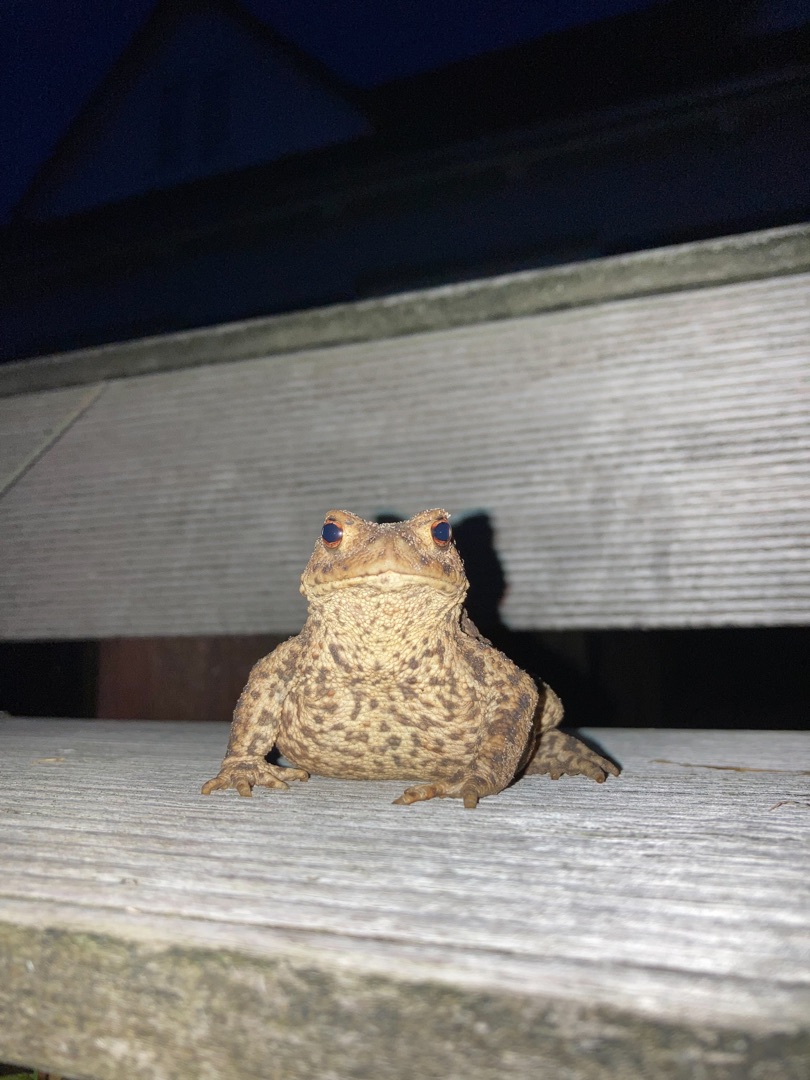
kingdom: Animalia
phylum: Chordata
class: Amphibia
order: Anura
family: Bufonidae
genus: Bufo
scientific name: Bufo bufo
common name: Skrubtudse
